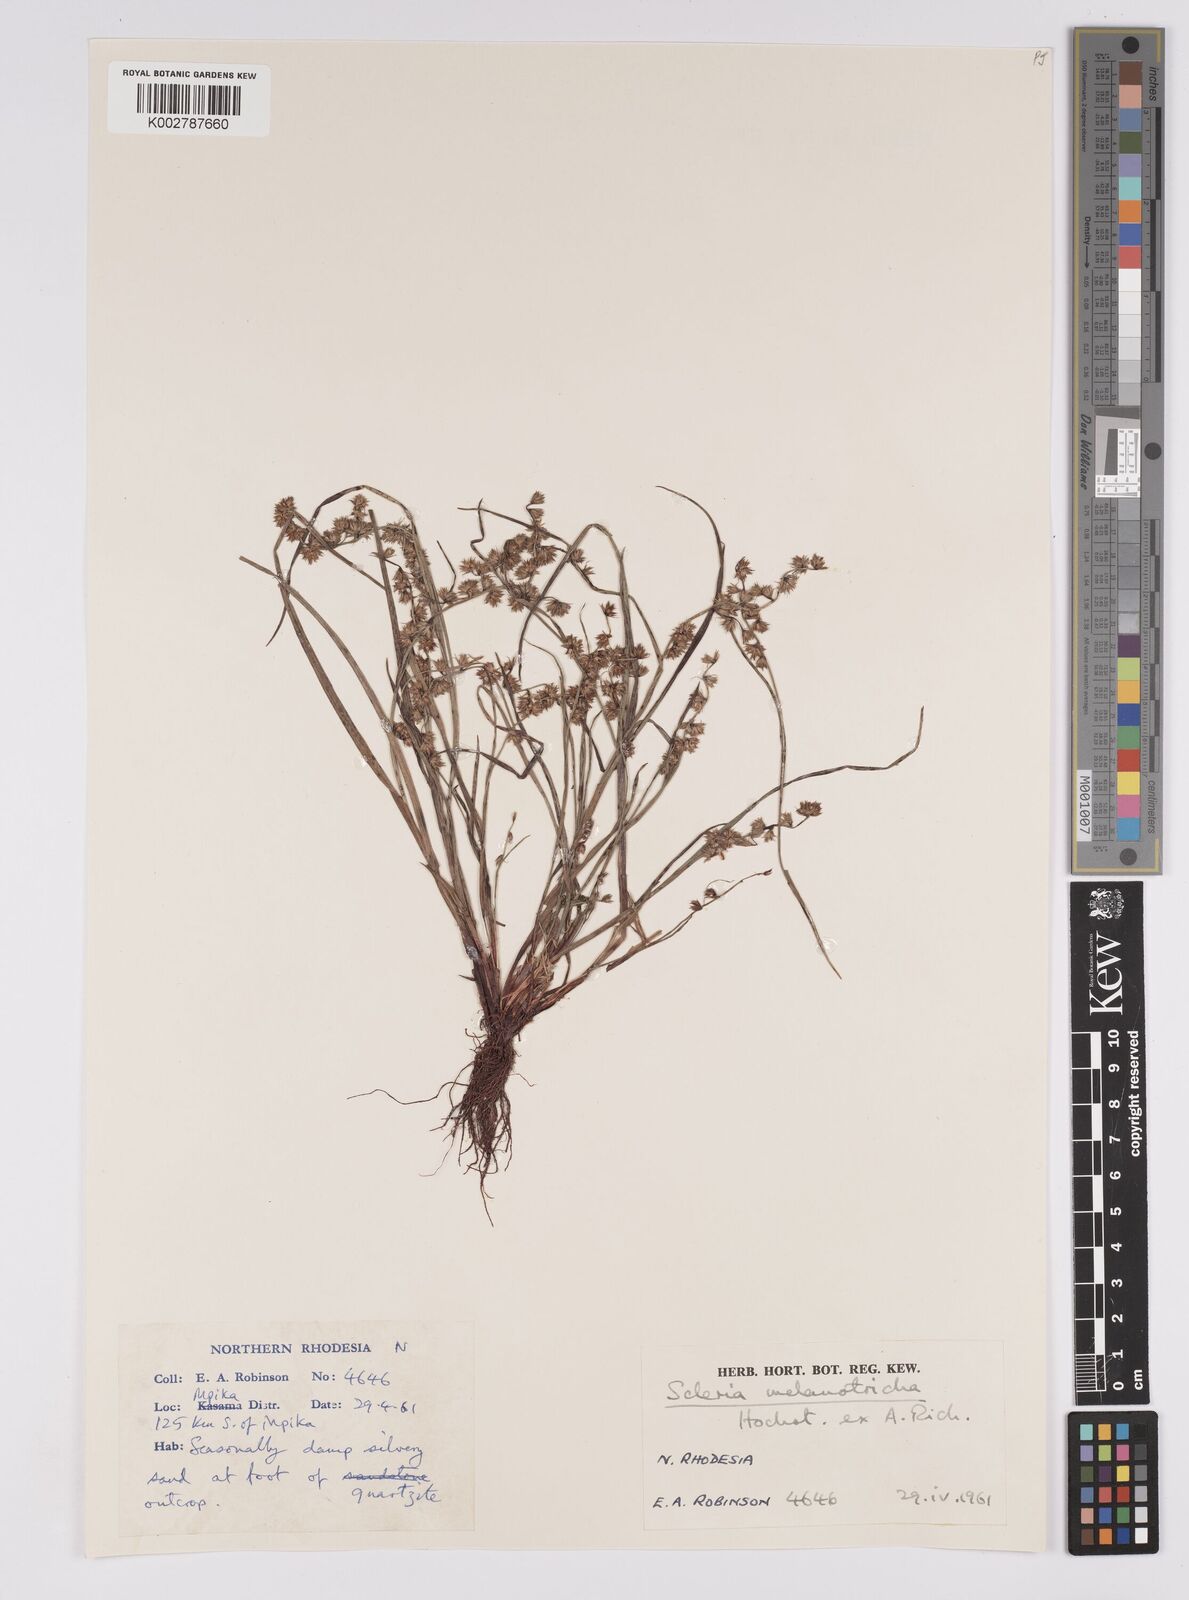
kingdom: Plantae
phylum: Tracheophyta
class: Liliopsida
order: Poales
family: Cyperaceae
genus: Scleria
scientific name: Scleria melanotricha
